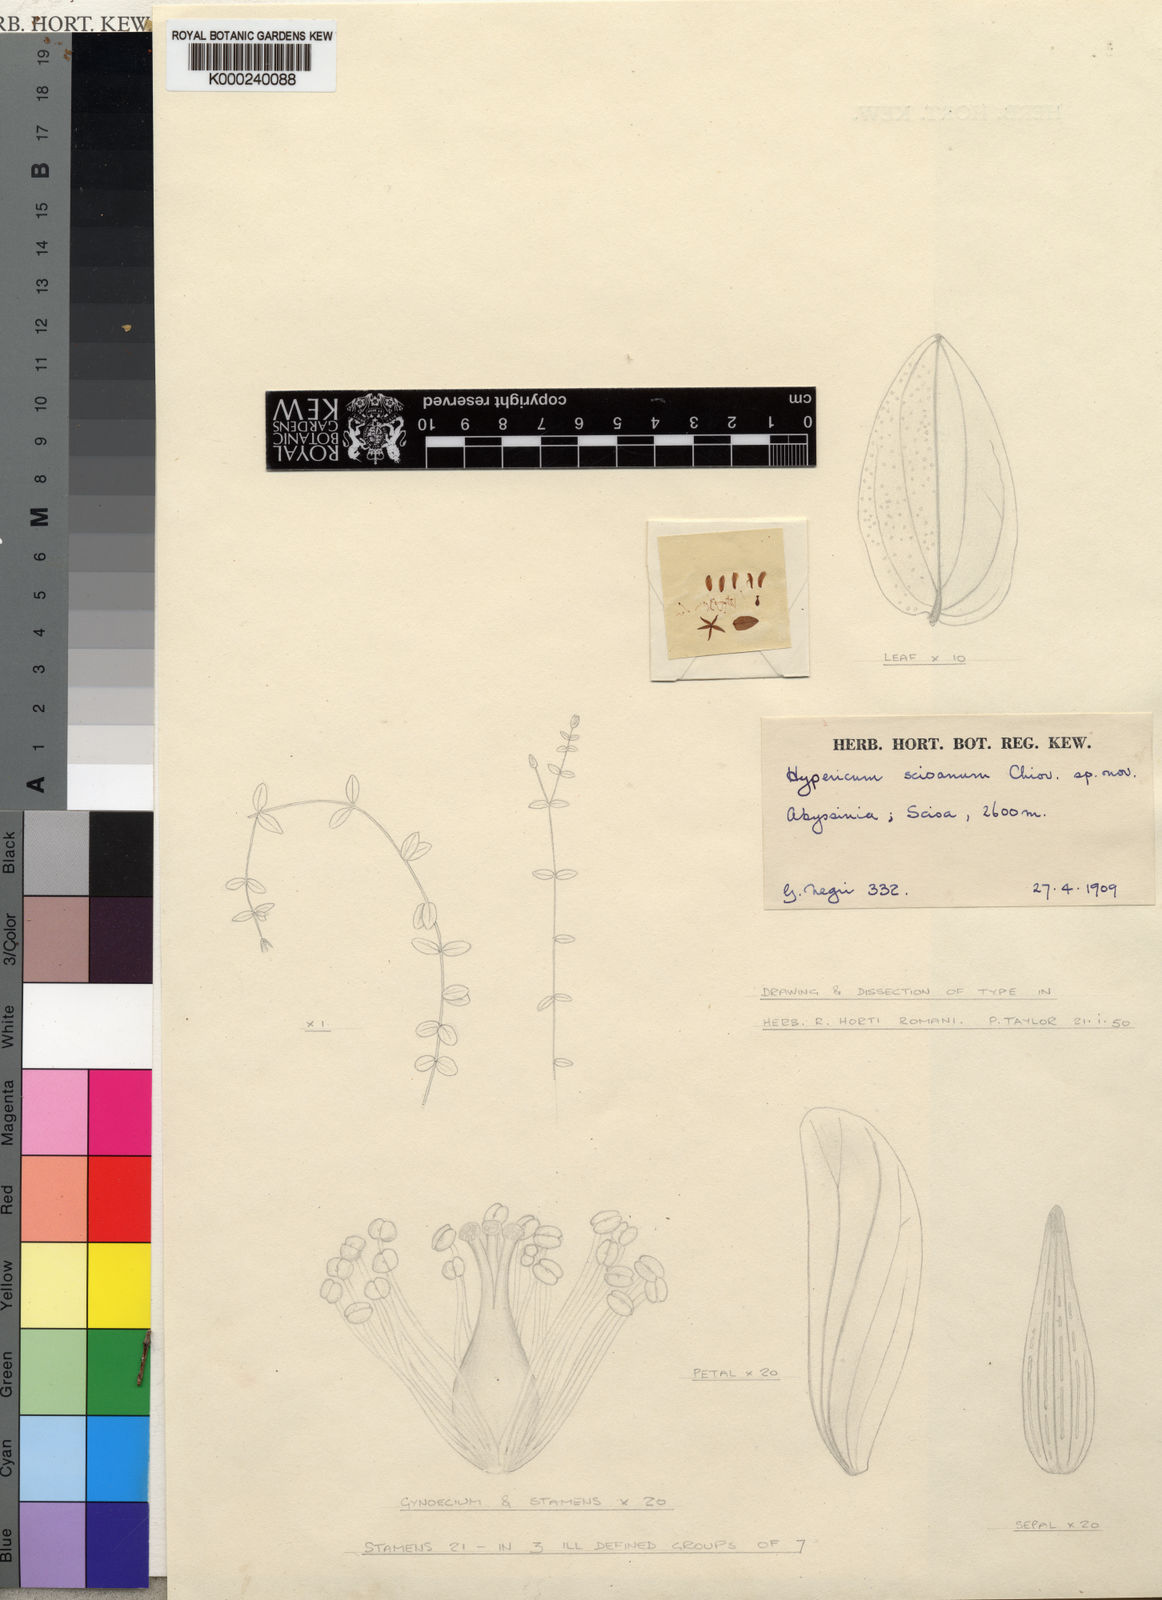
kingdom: Plantae
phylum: Tracheophyta
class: Magnoliopsida
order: Malpighiales
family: Hypericaceae
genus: Hypericum
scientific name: Hypericum scioanum
